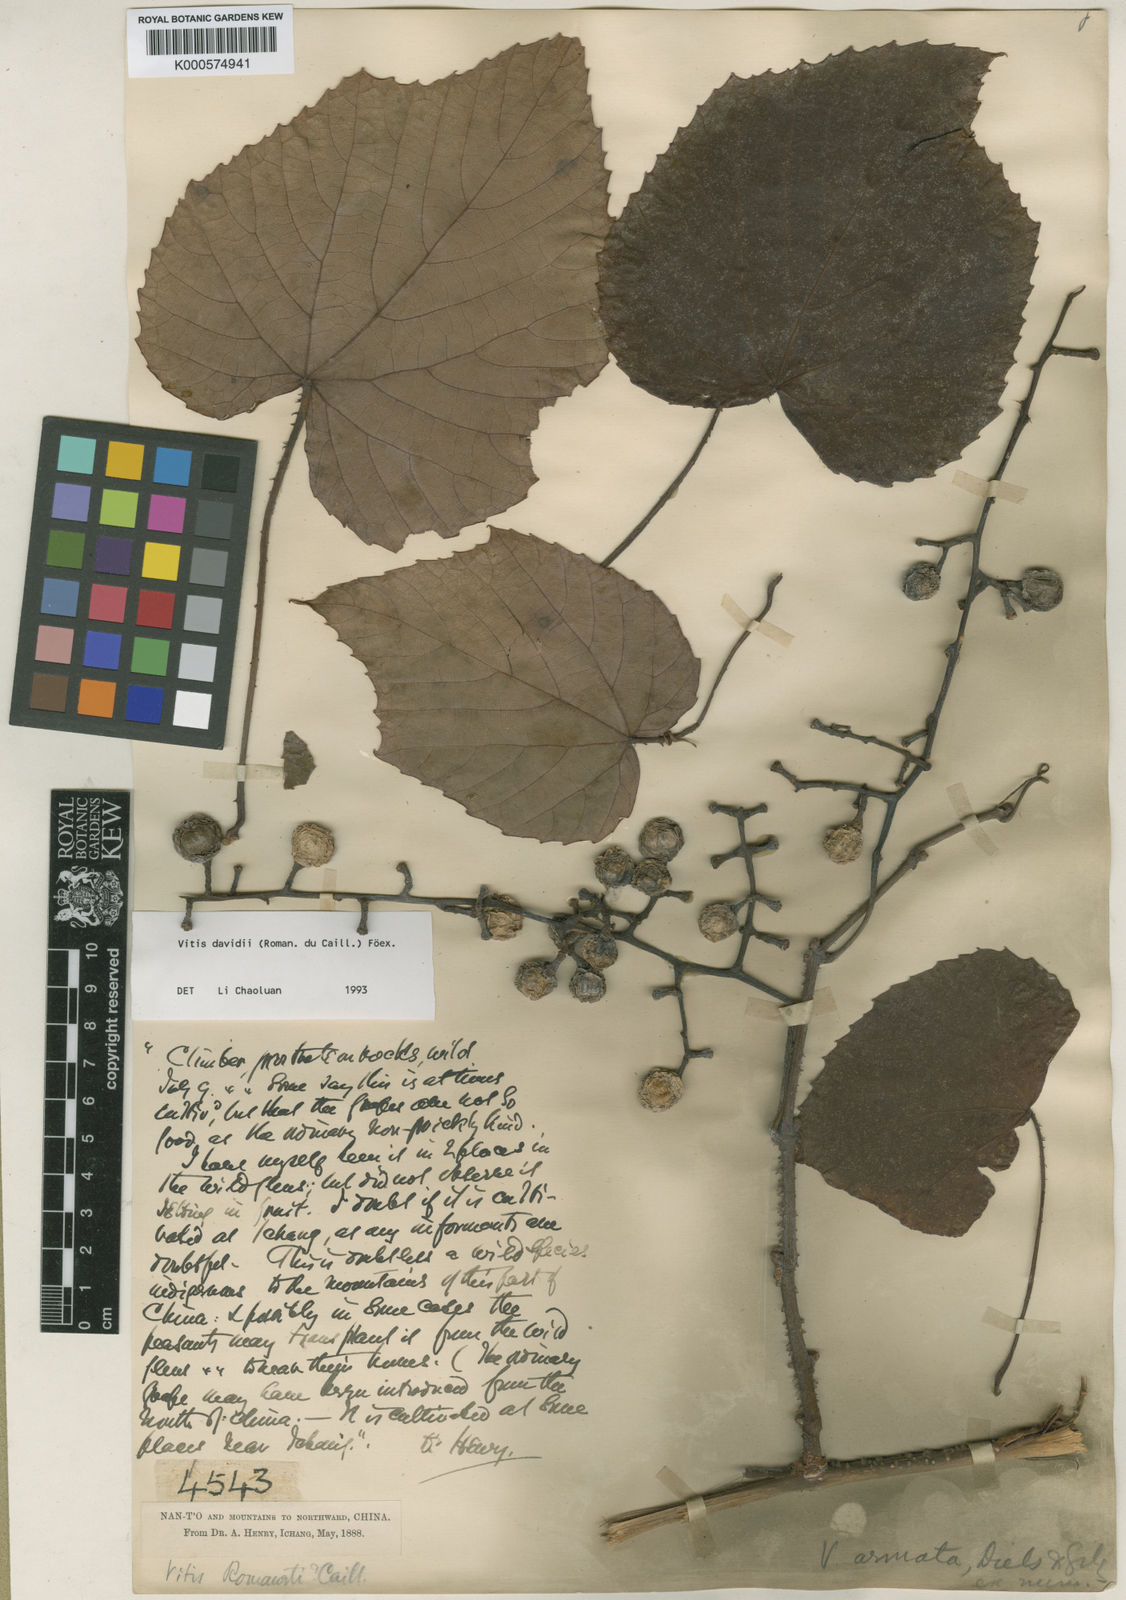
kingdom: Plantae
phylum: Tracheophyta
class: Magnoliopsida
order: Vitales
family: Vitaceae
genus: Vitis
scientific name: Vitis
